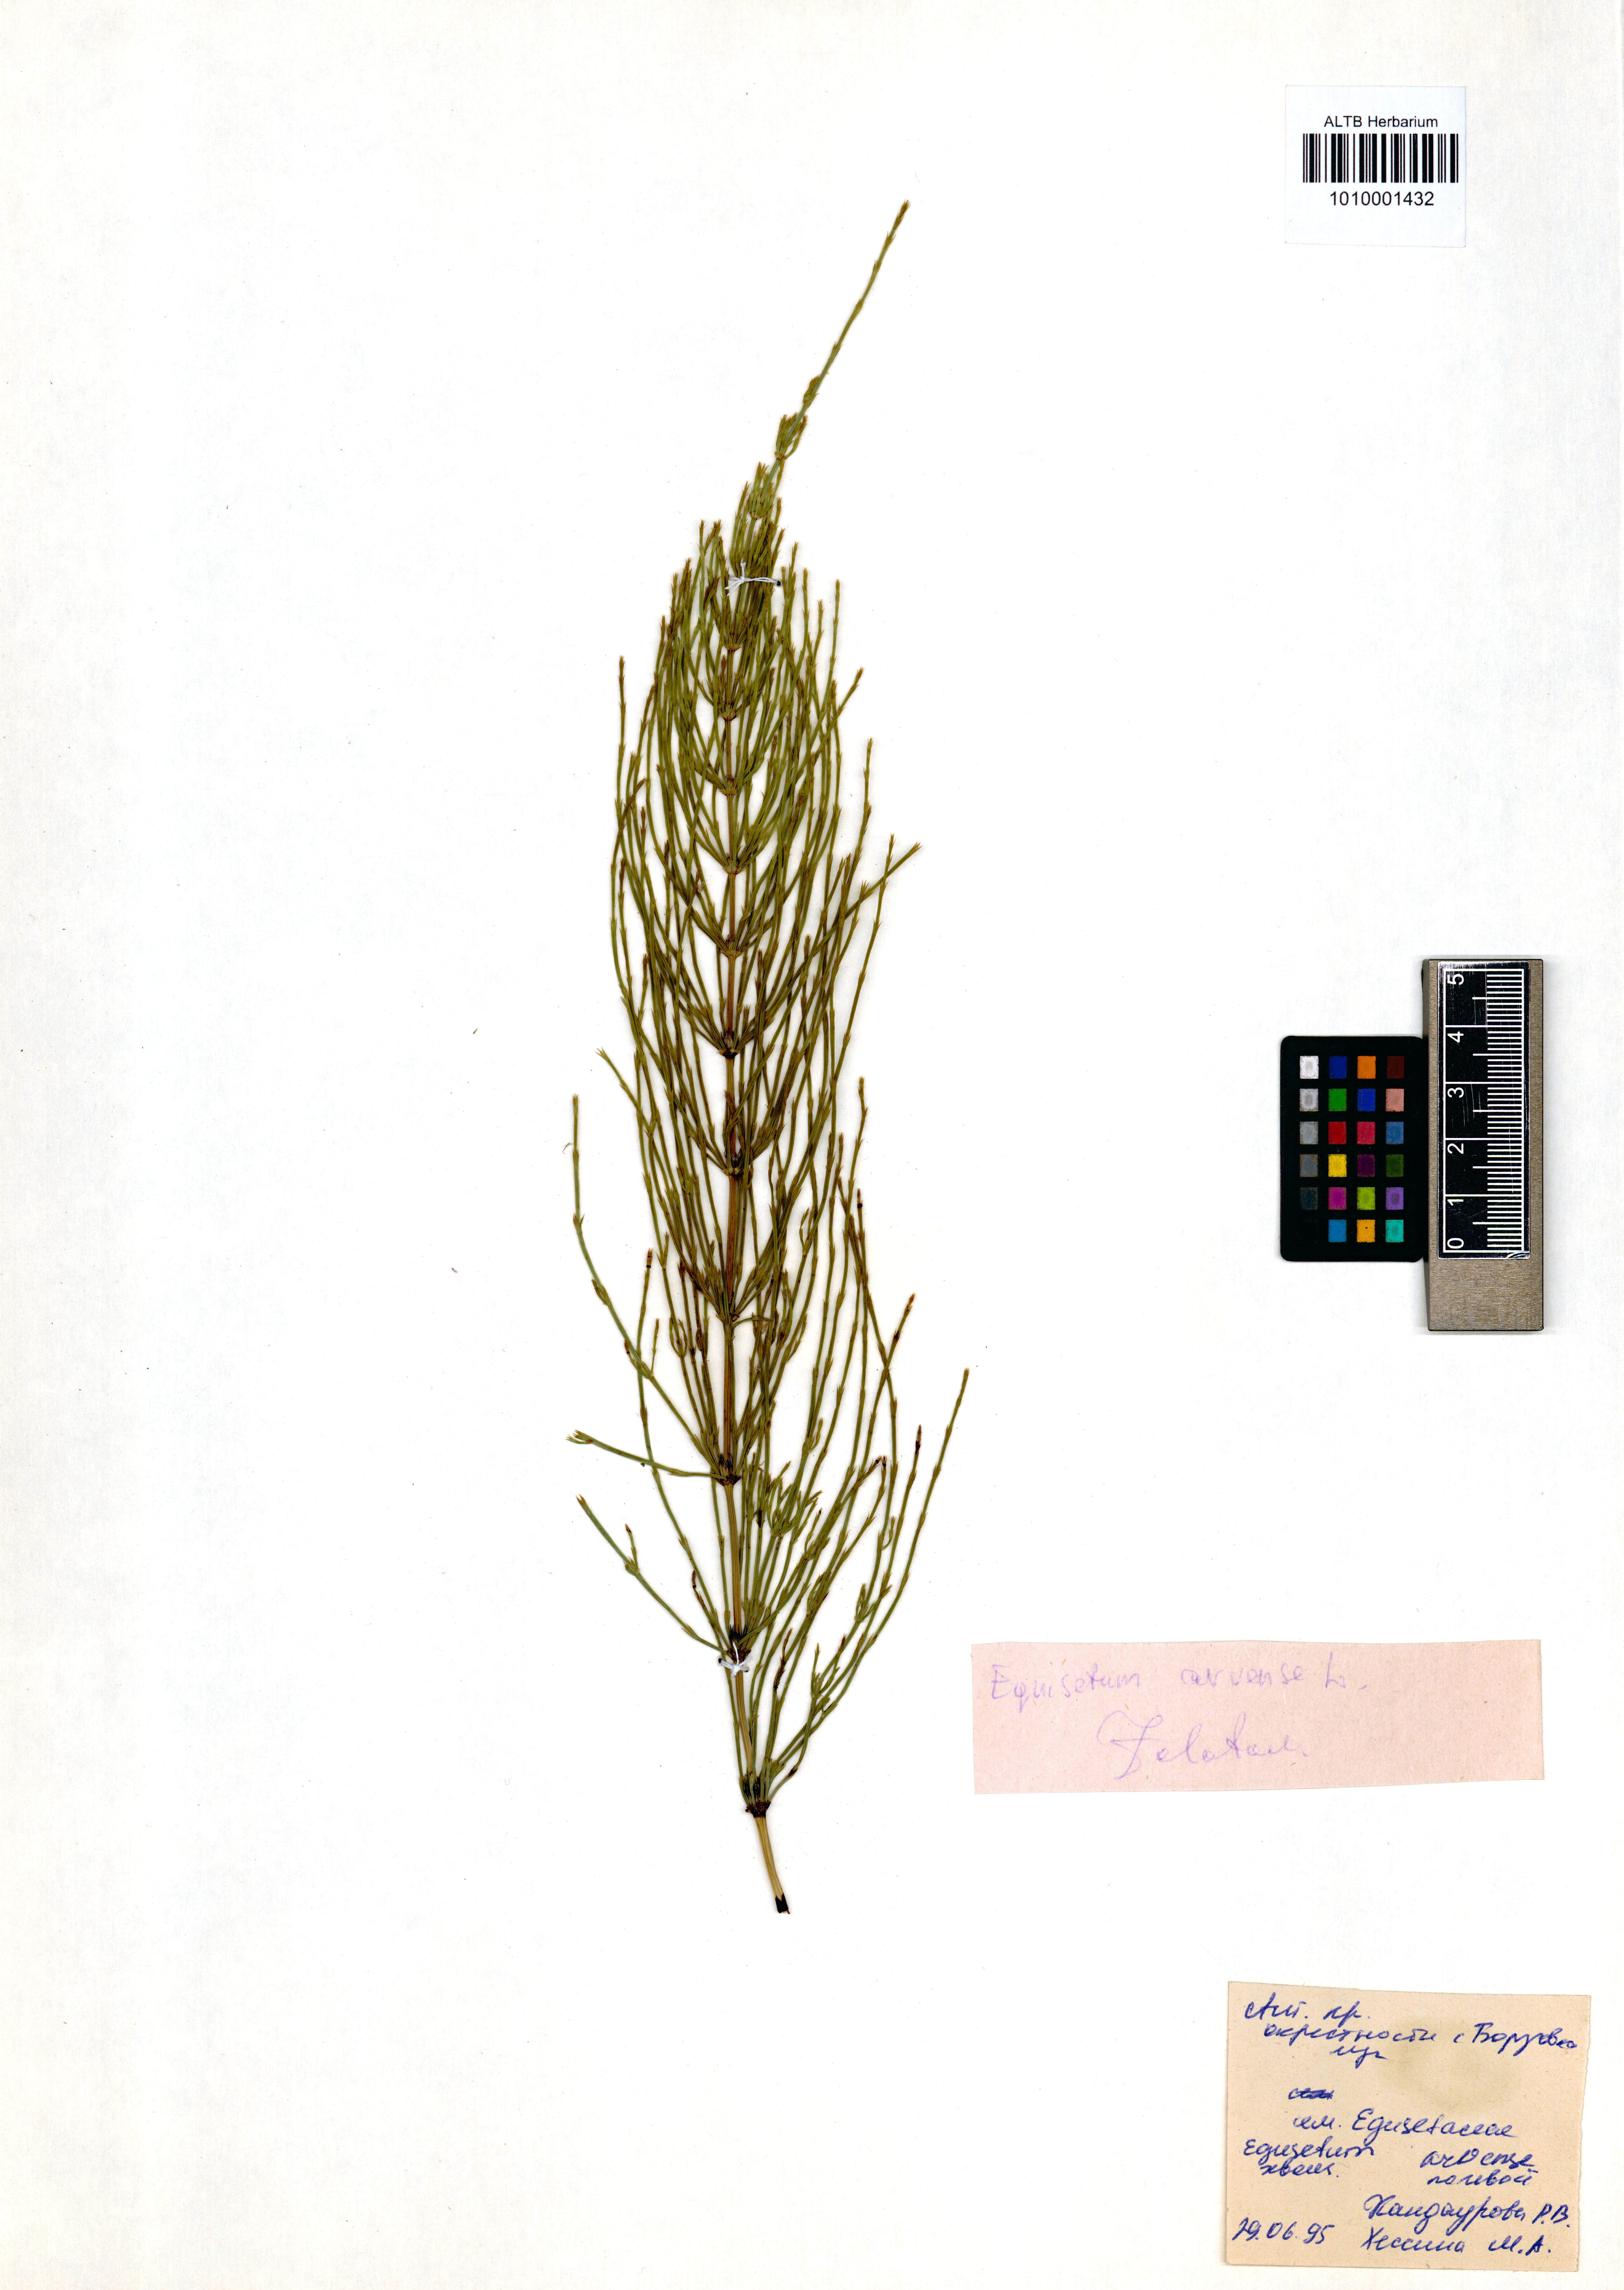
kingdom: Plantae
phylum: Tracheophyta
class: Polypodiopsida
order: Equisetales
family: Equisetaceae
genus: Equisetum
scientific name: Equisetum arvense
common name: Field horsetail
